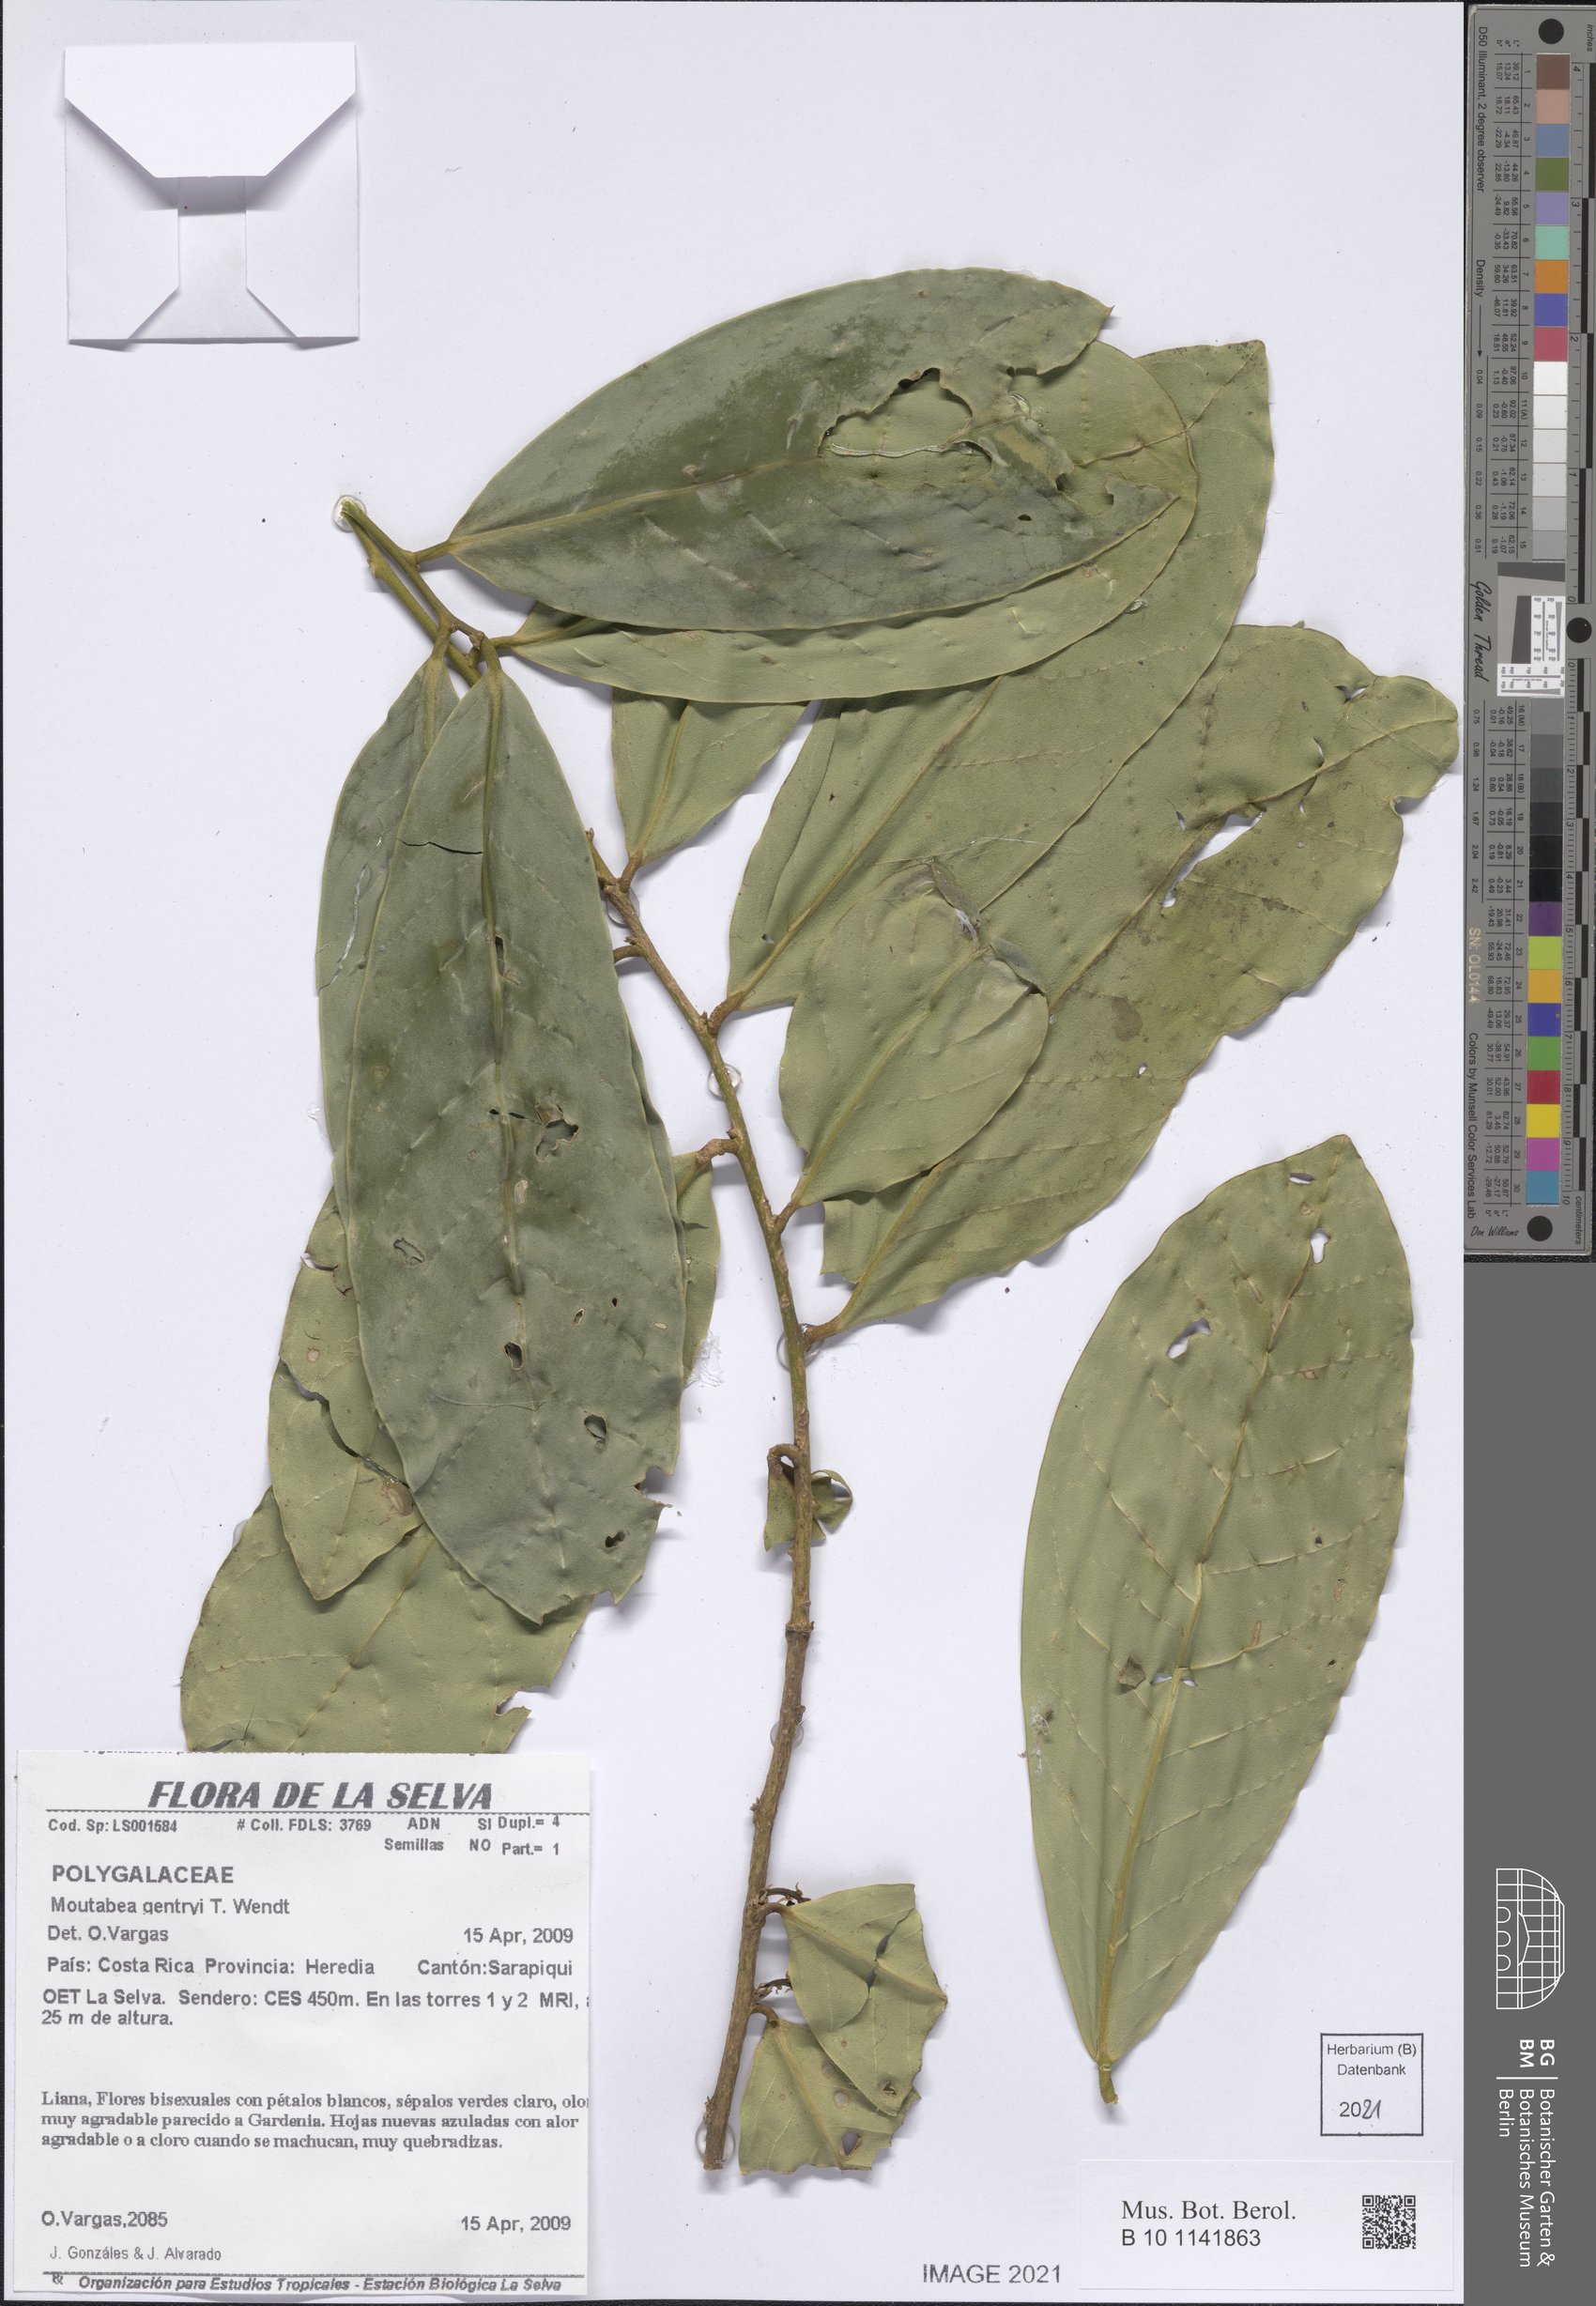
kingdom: Plantae
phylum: Tracheophyta
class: Magnoliopsida
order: Fabales
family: Polygalaceae
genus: Moutabea
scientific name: Moutabea gentryi
